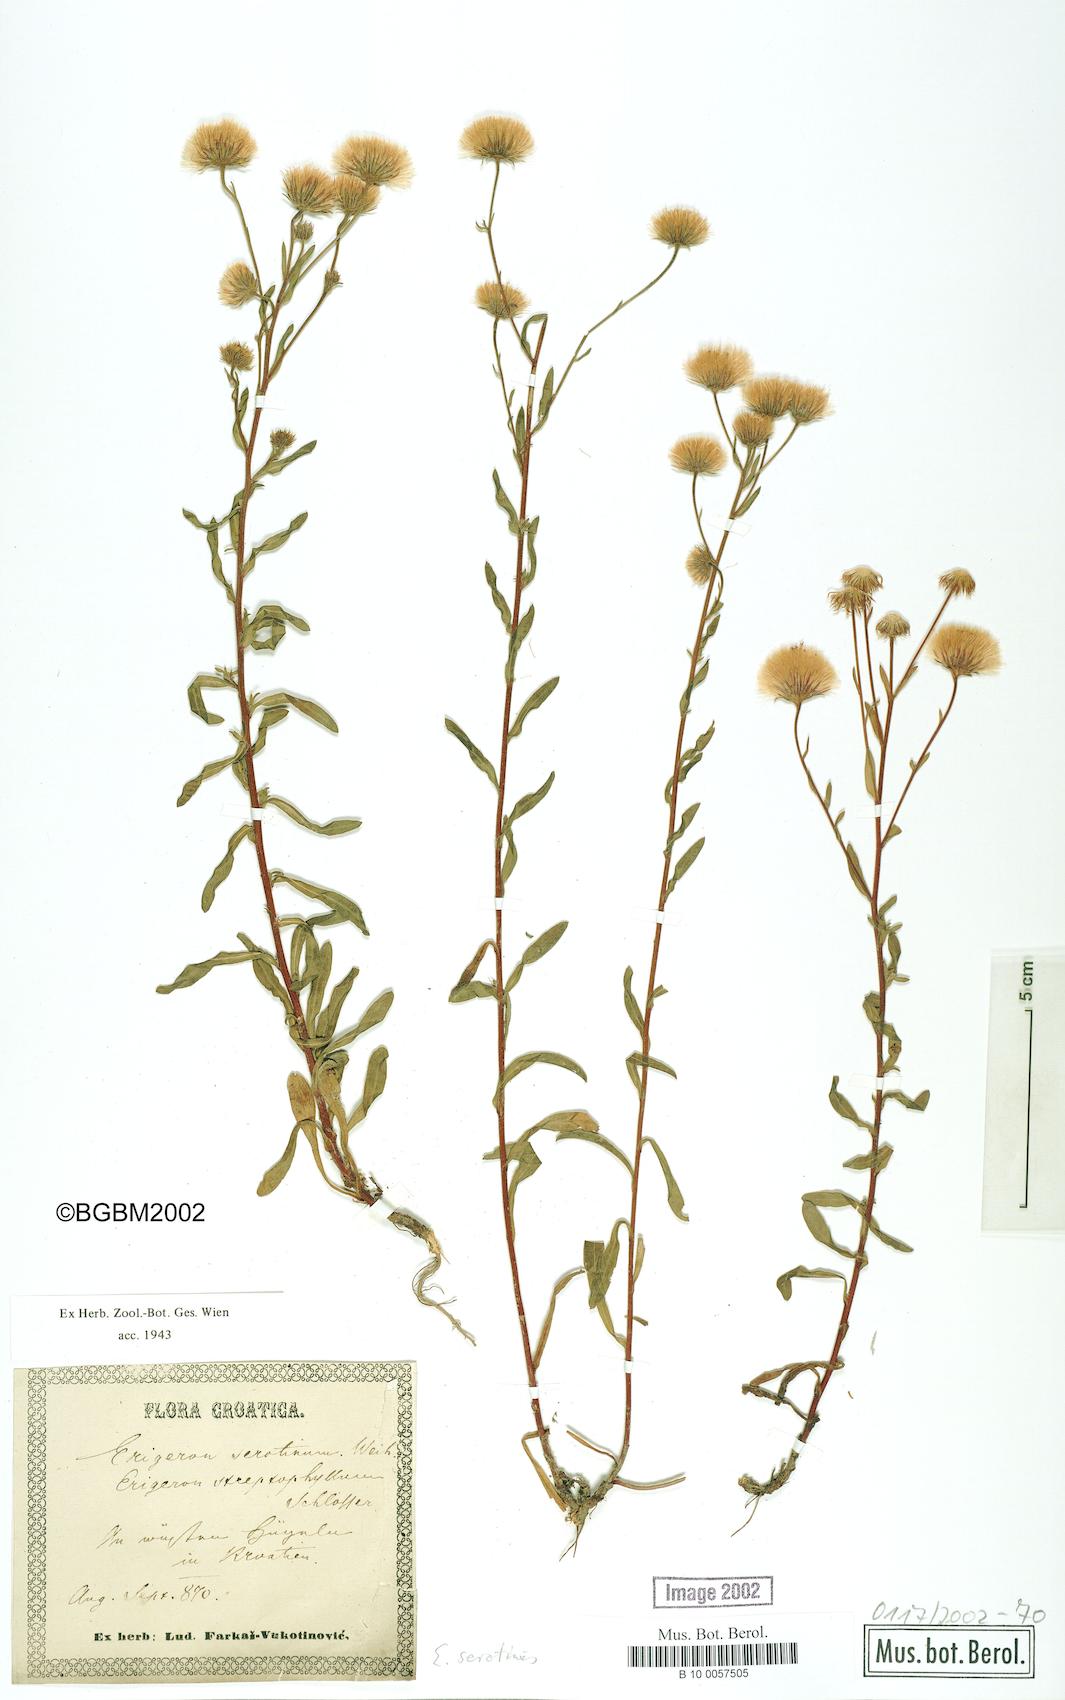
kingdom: Plantae
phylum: Tracheophyta
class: Magnoliopsida
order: Asterales
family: Asteraceae
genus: Erigeron
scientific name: Erigeron muralis
